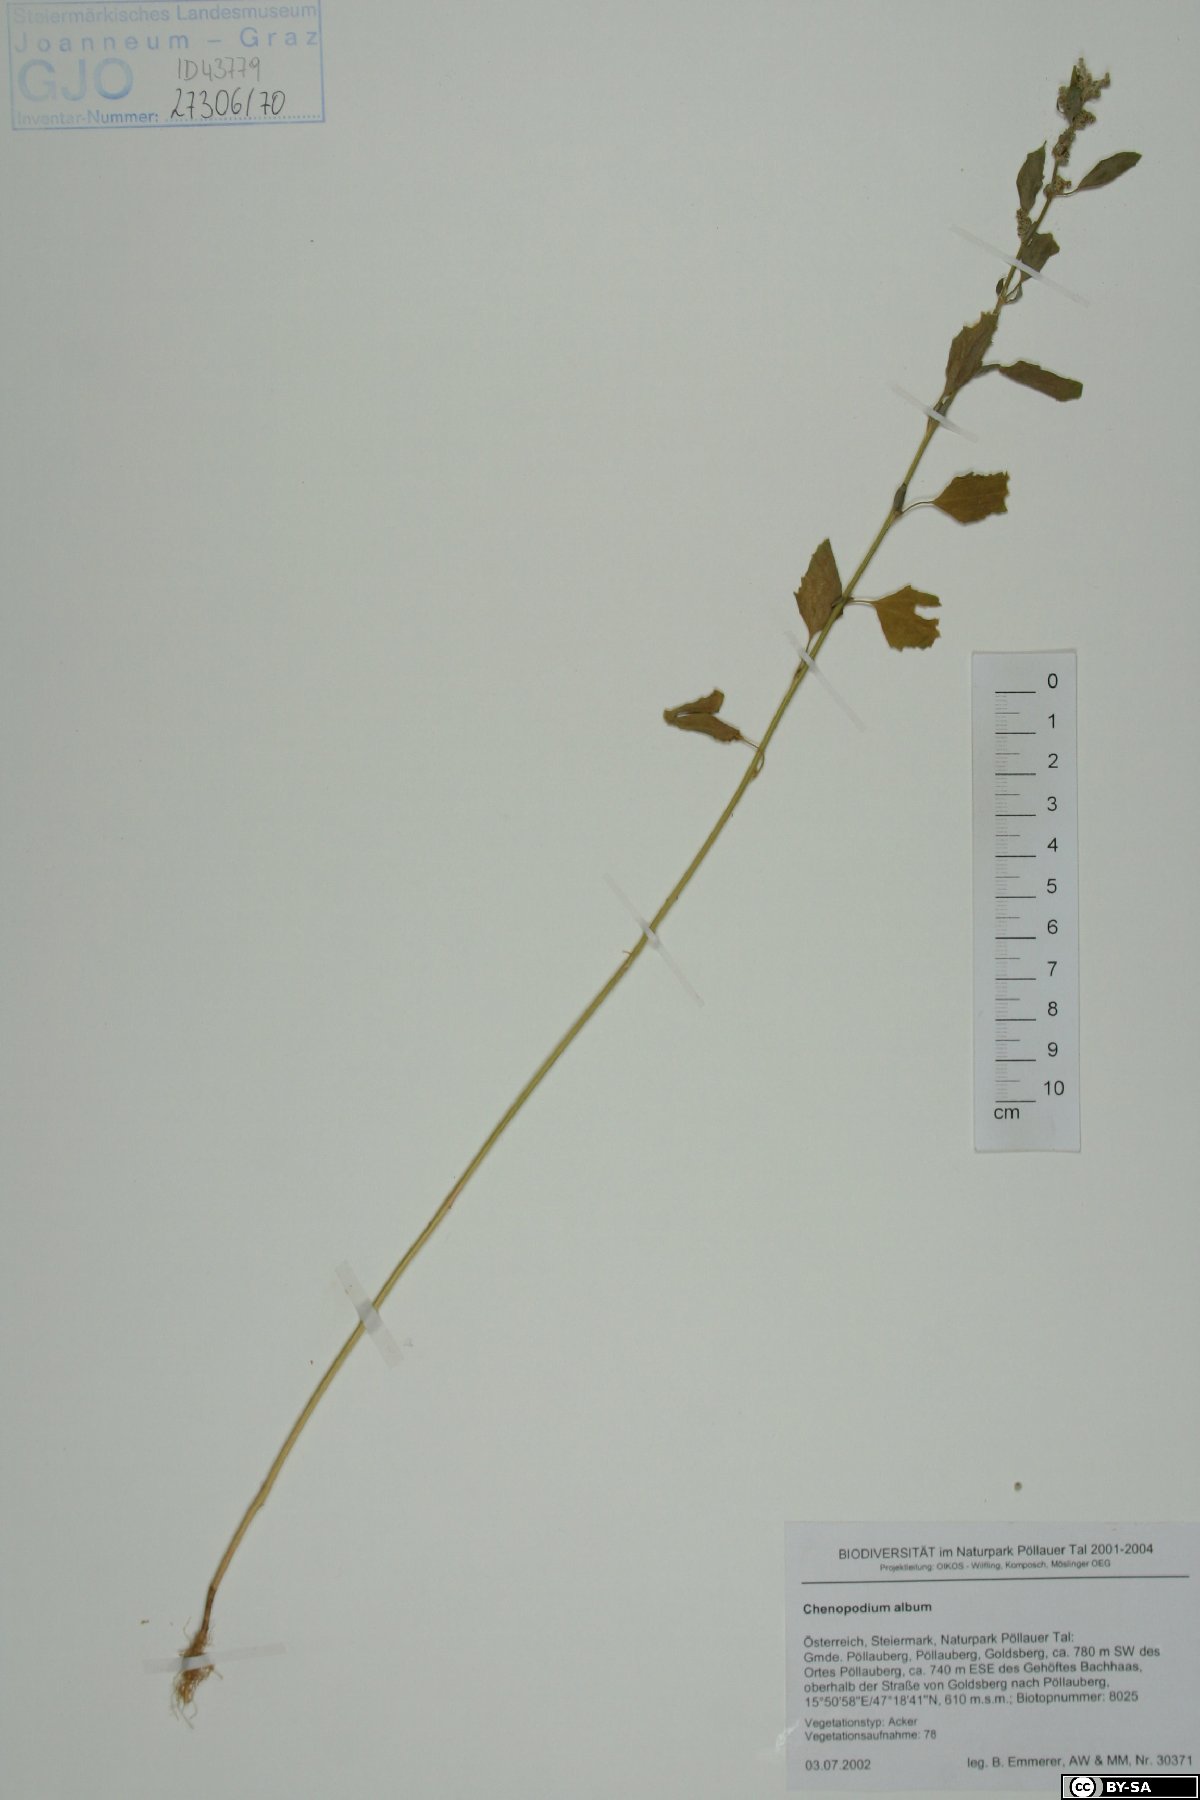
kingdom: Plantae
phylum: Tracheophyta
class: Magnoliopsida
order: Caryophyllales
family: Amaranthaceae
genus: Chenopodium
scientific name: Chenopodium album
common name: Fat-hen
